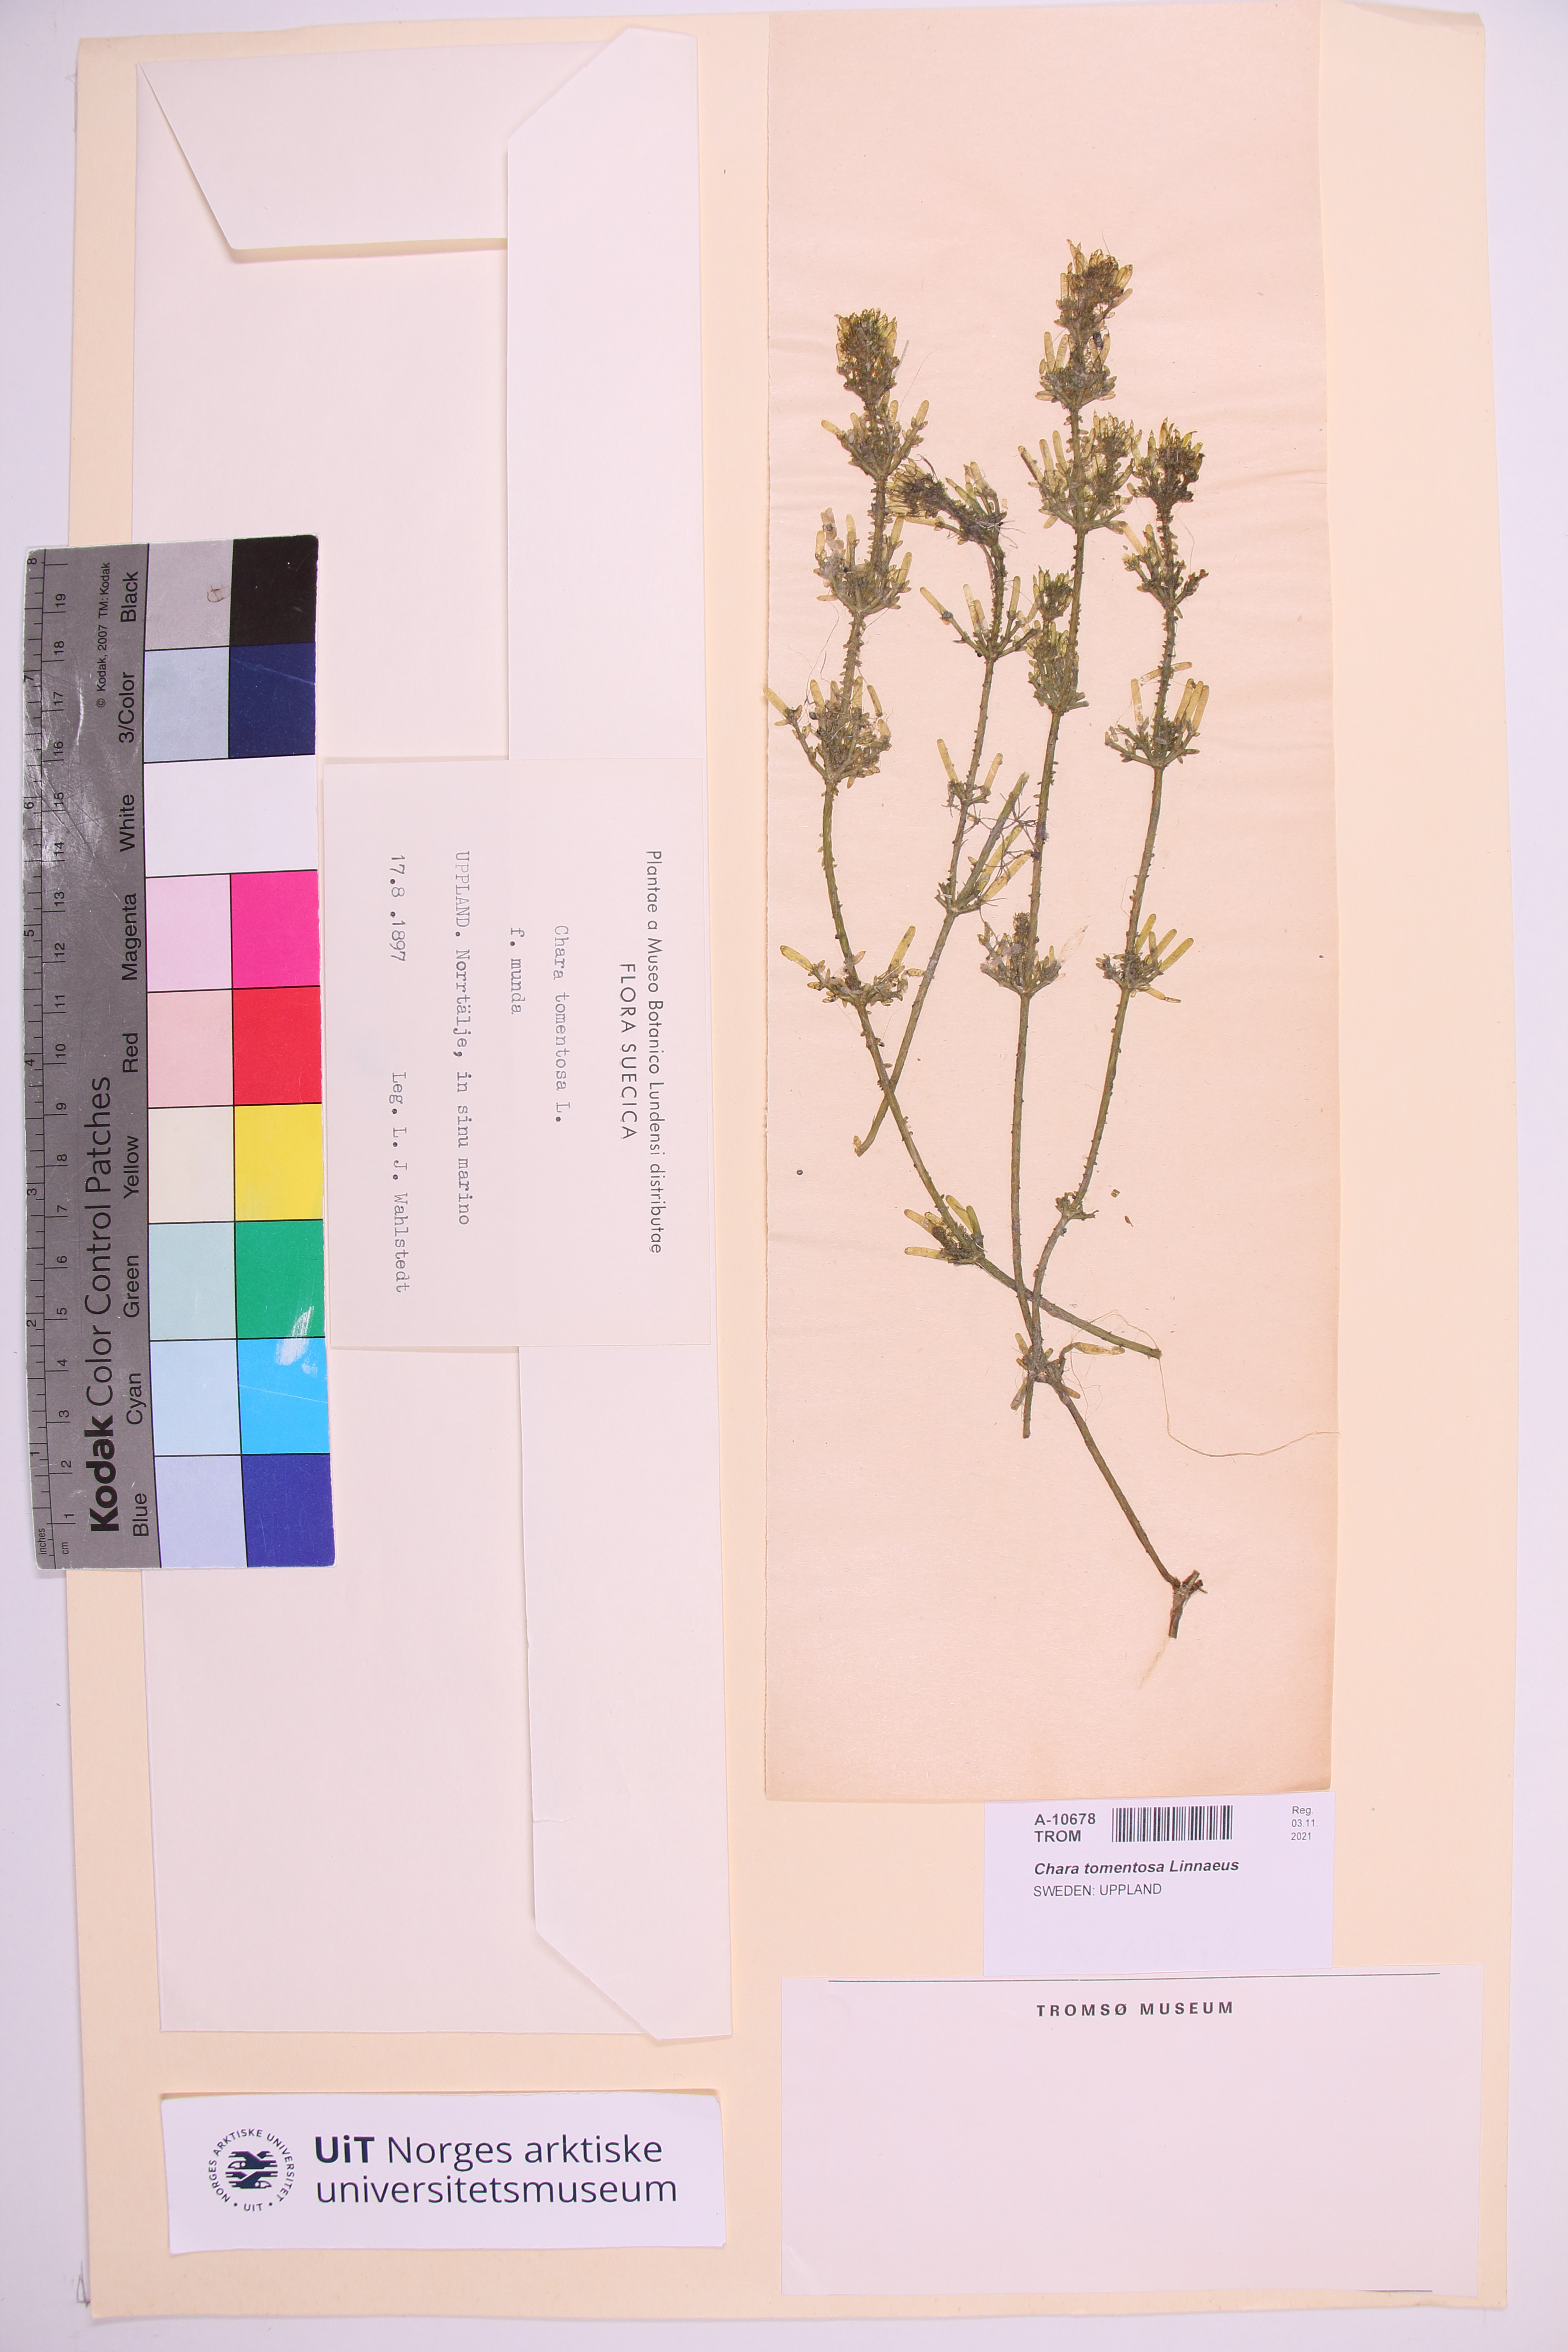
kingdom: Plantae
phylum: Charophyta
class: Charophyceae
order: Charales
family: Characeae
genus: Chara
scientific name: Chara tomentosa
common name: Coral stonewort
